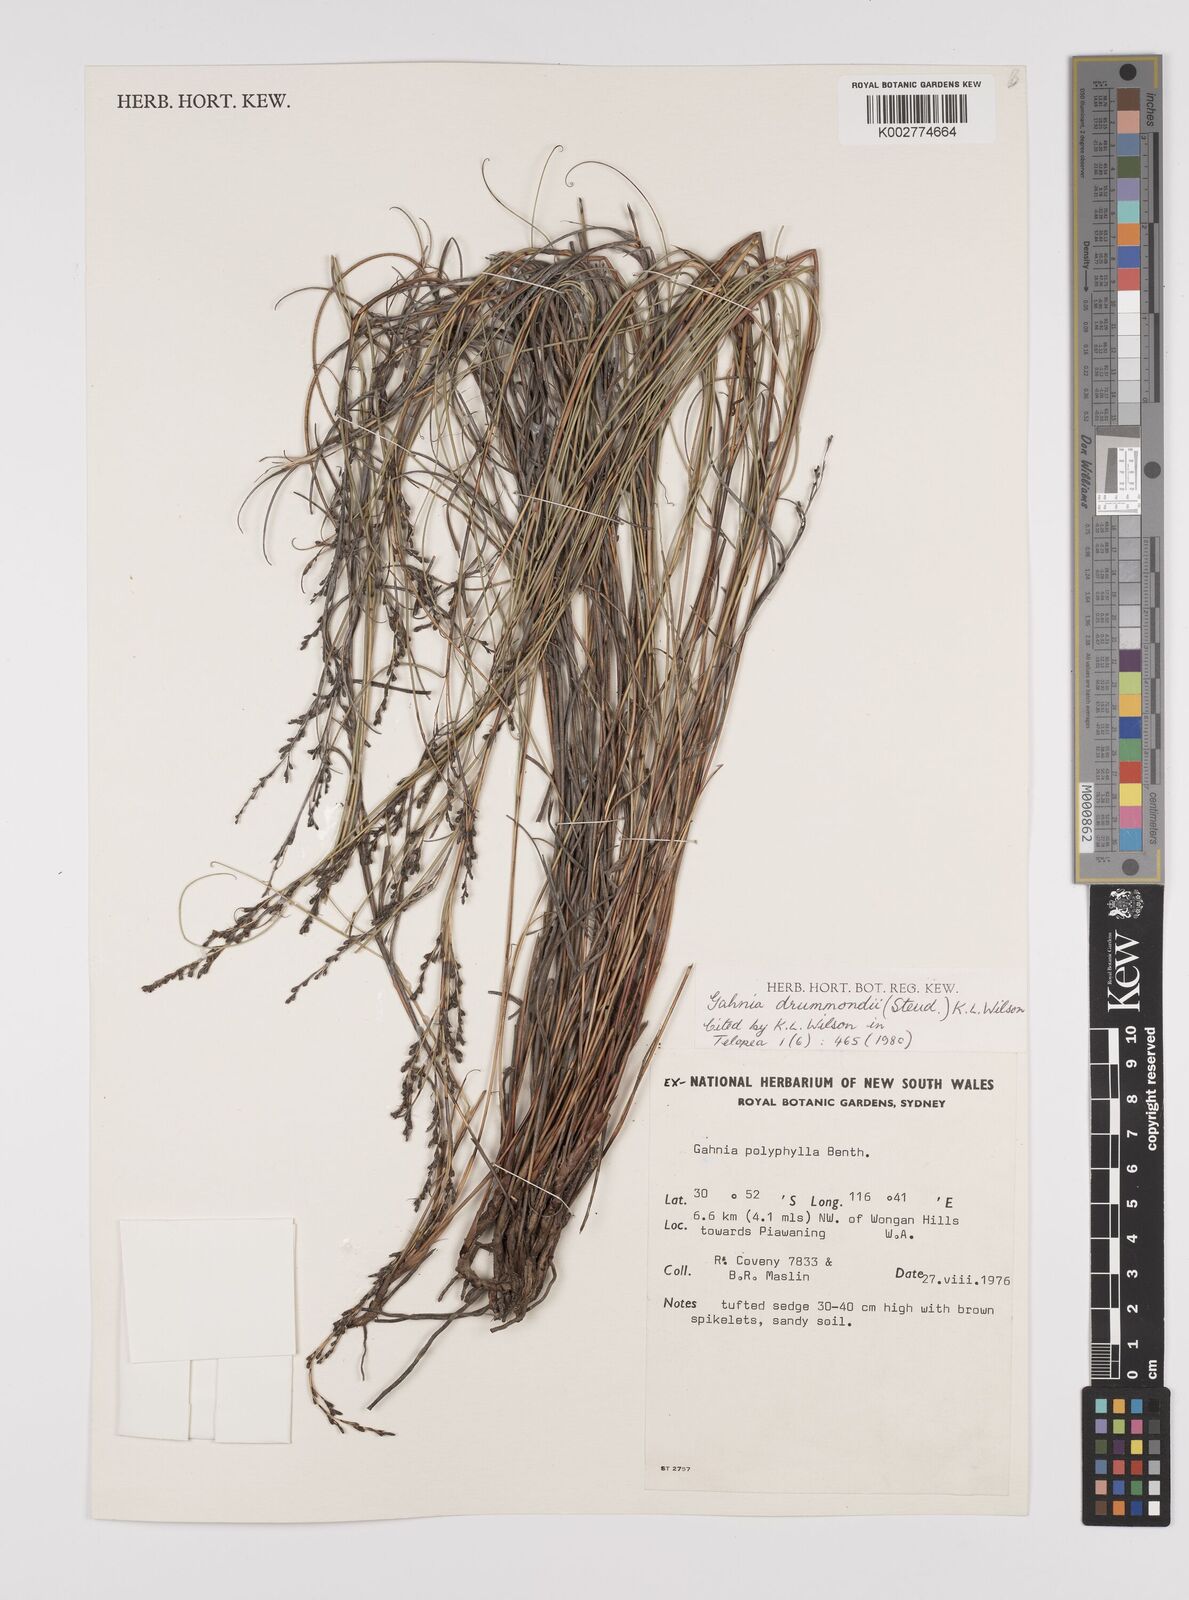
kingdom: Plantae
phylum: Tracheophyta
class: Liliopsida
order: Poales
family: Cyperaceae
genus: Gahnia
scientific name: Gahnia drummondii
